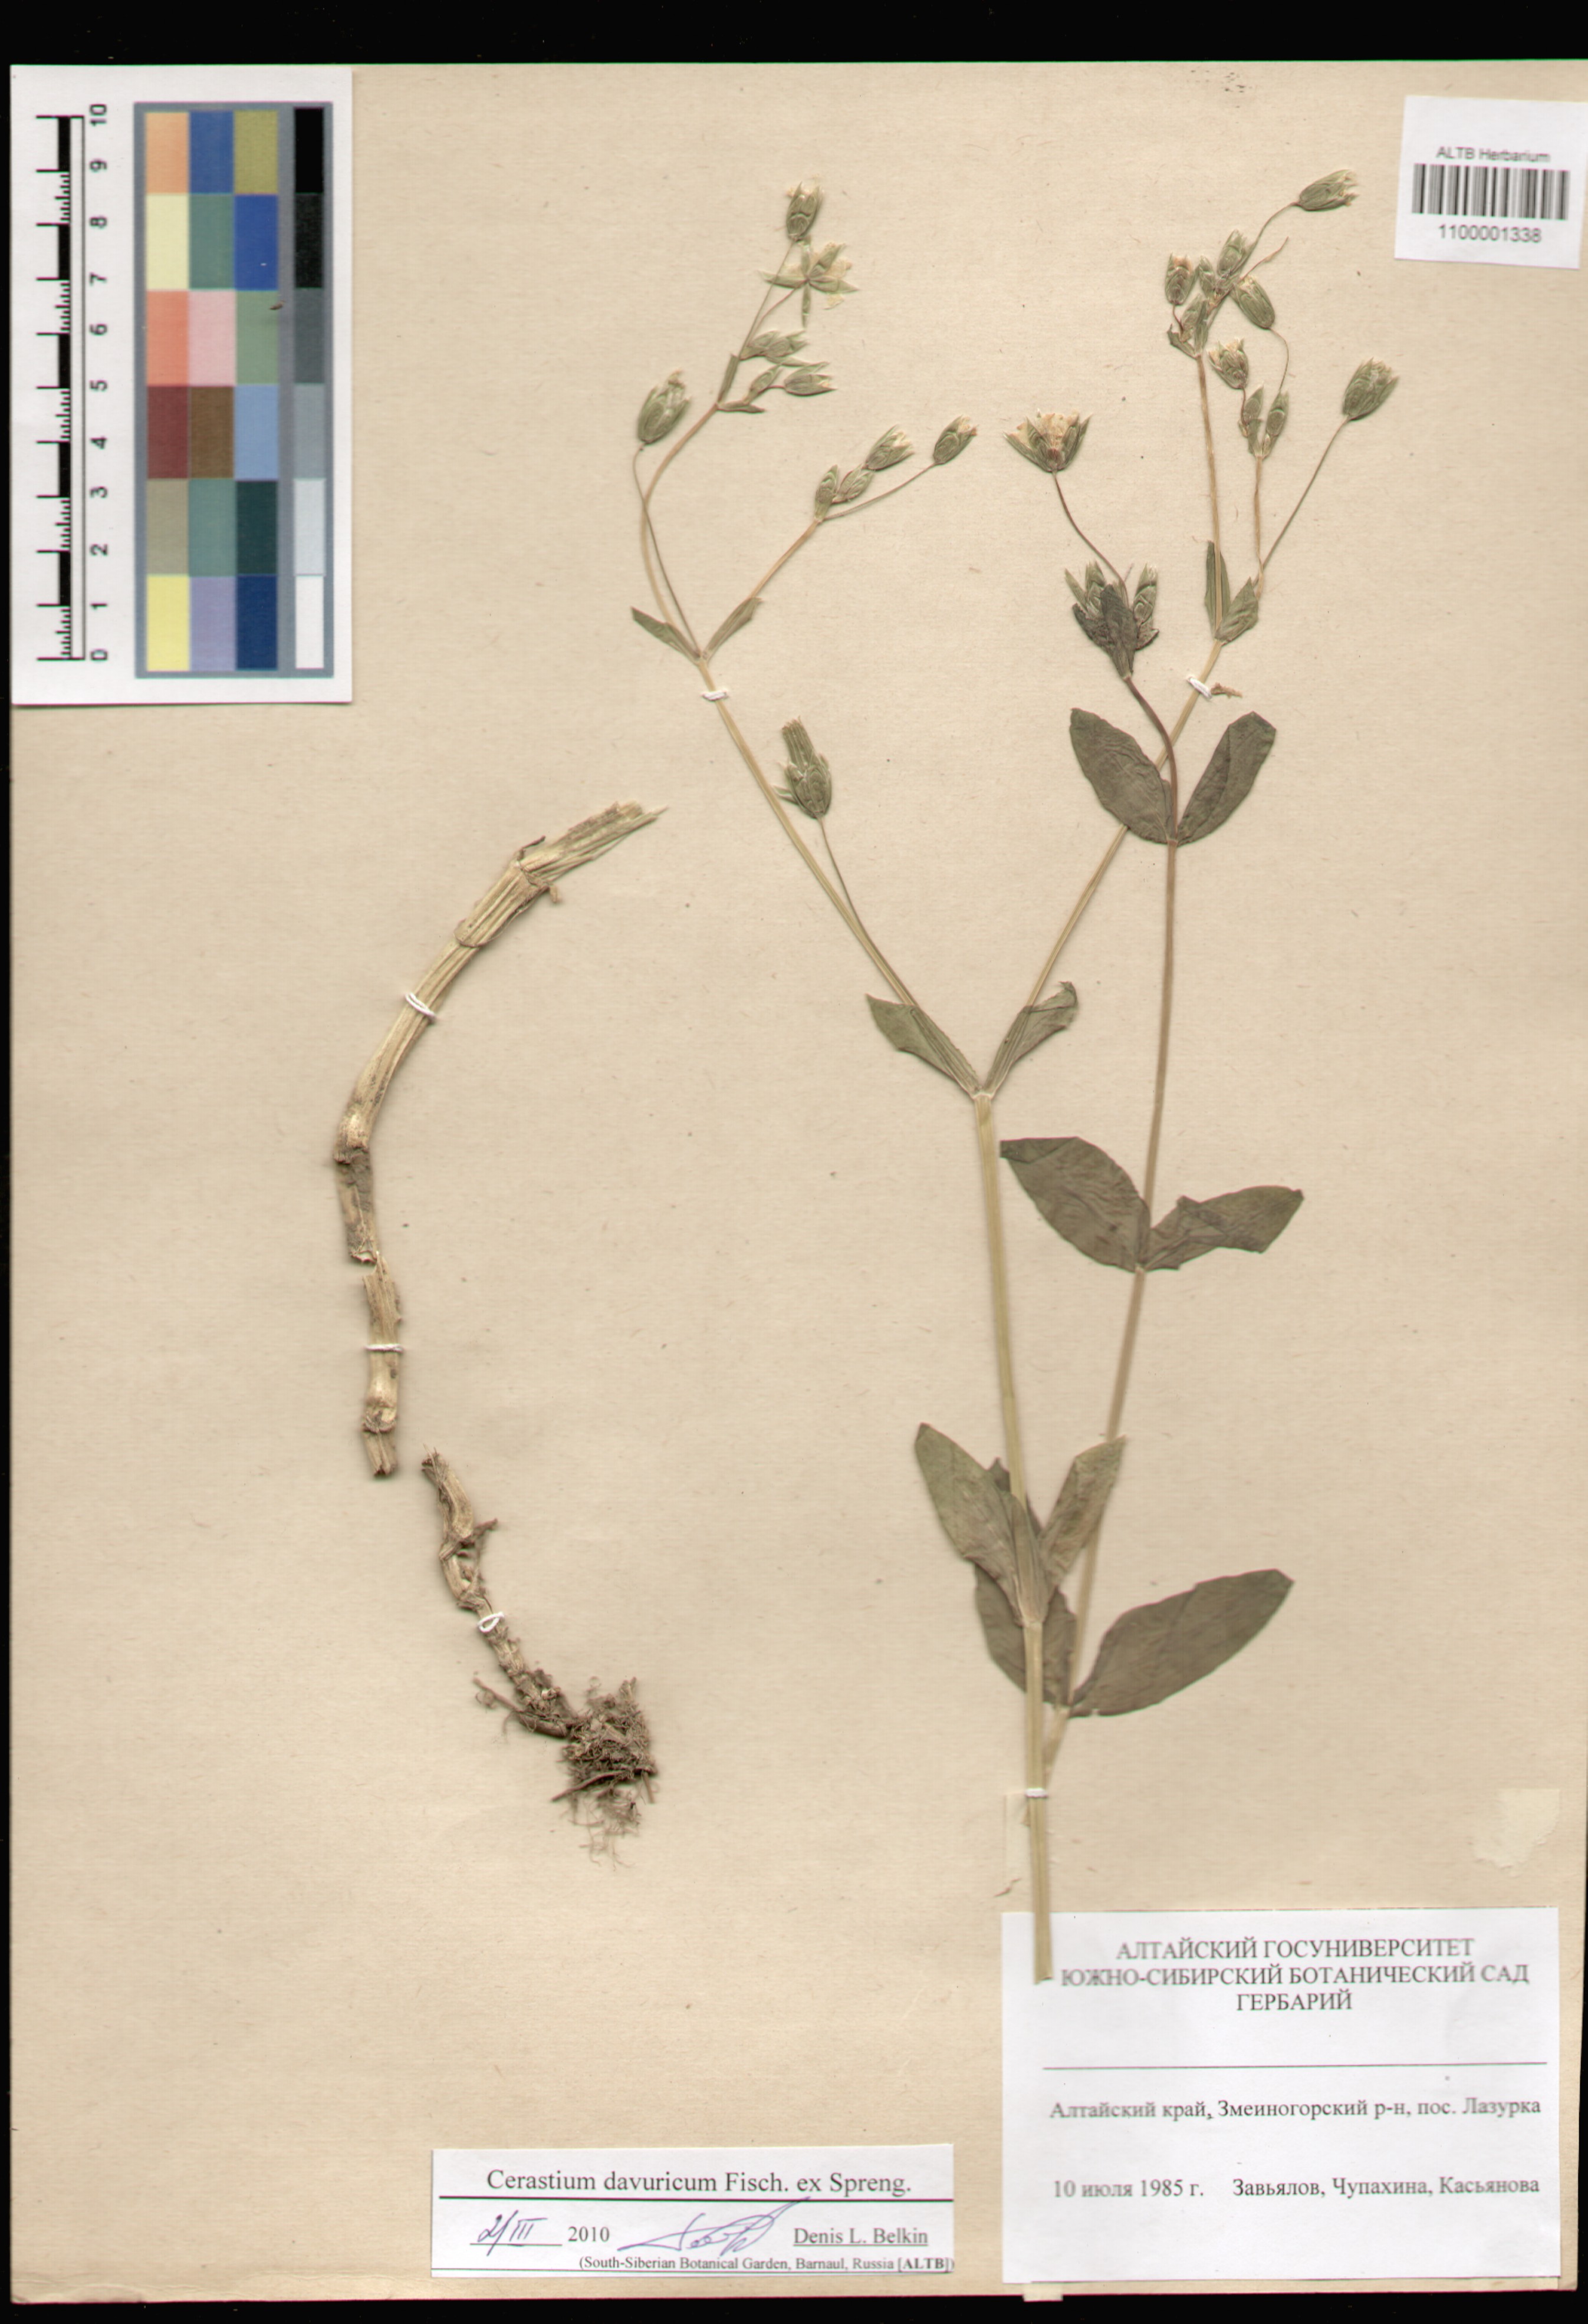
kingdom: Plantae
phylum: Tracheophyta
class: Magnoliopsida
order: Caryophyllales
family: Caryophyllaceae
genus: Dichodon
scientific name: Dichodon davuricum
